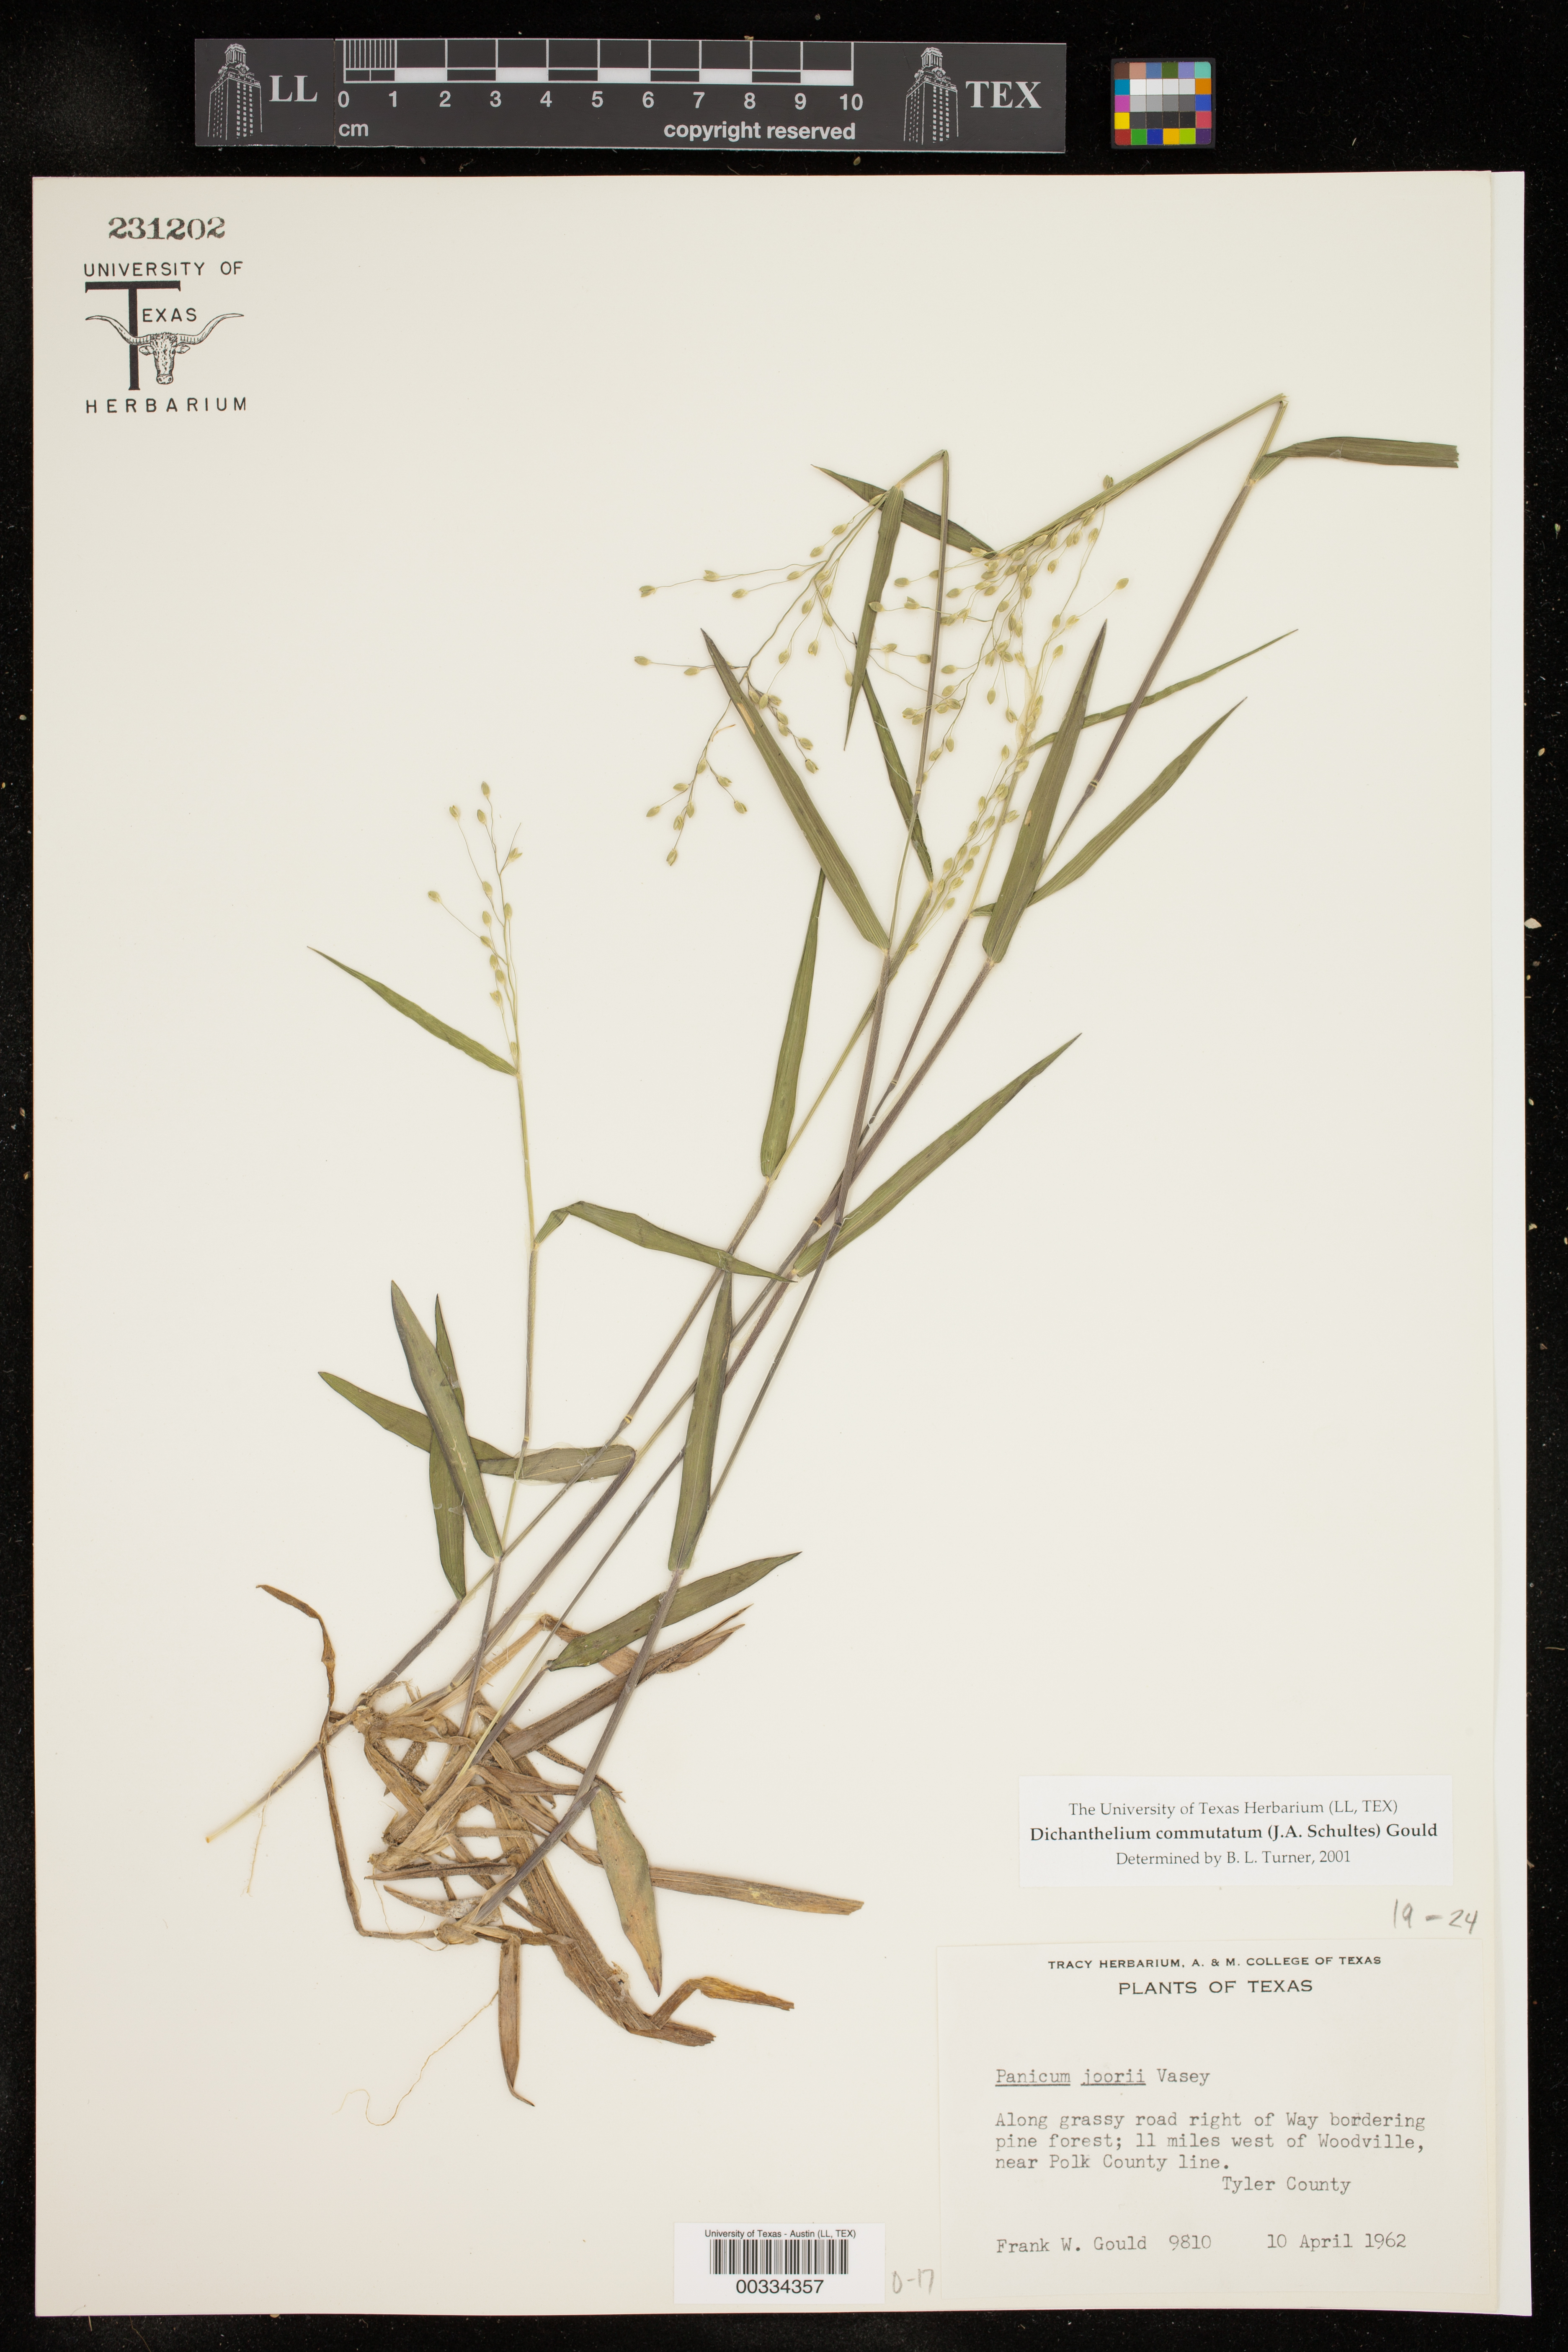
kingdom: Plantae
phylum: Tracheophyta
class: Liliopsida
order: Poales
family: Poaceae
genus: Dichanthelium
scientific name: Dichanthelium commutatum
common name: Variable witchgrass
